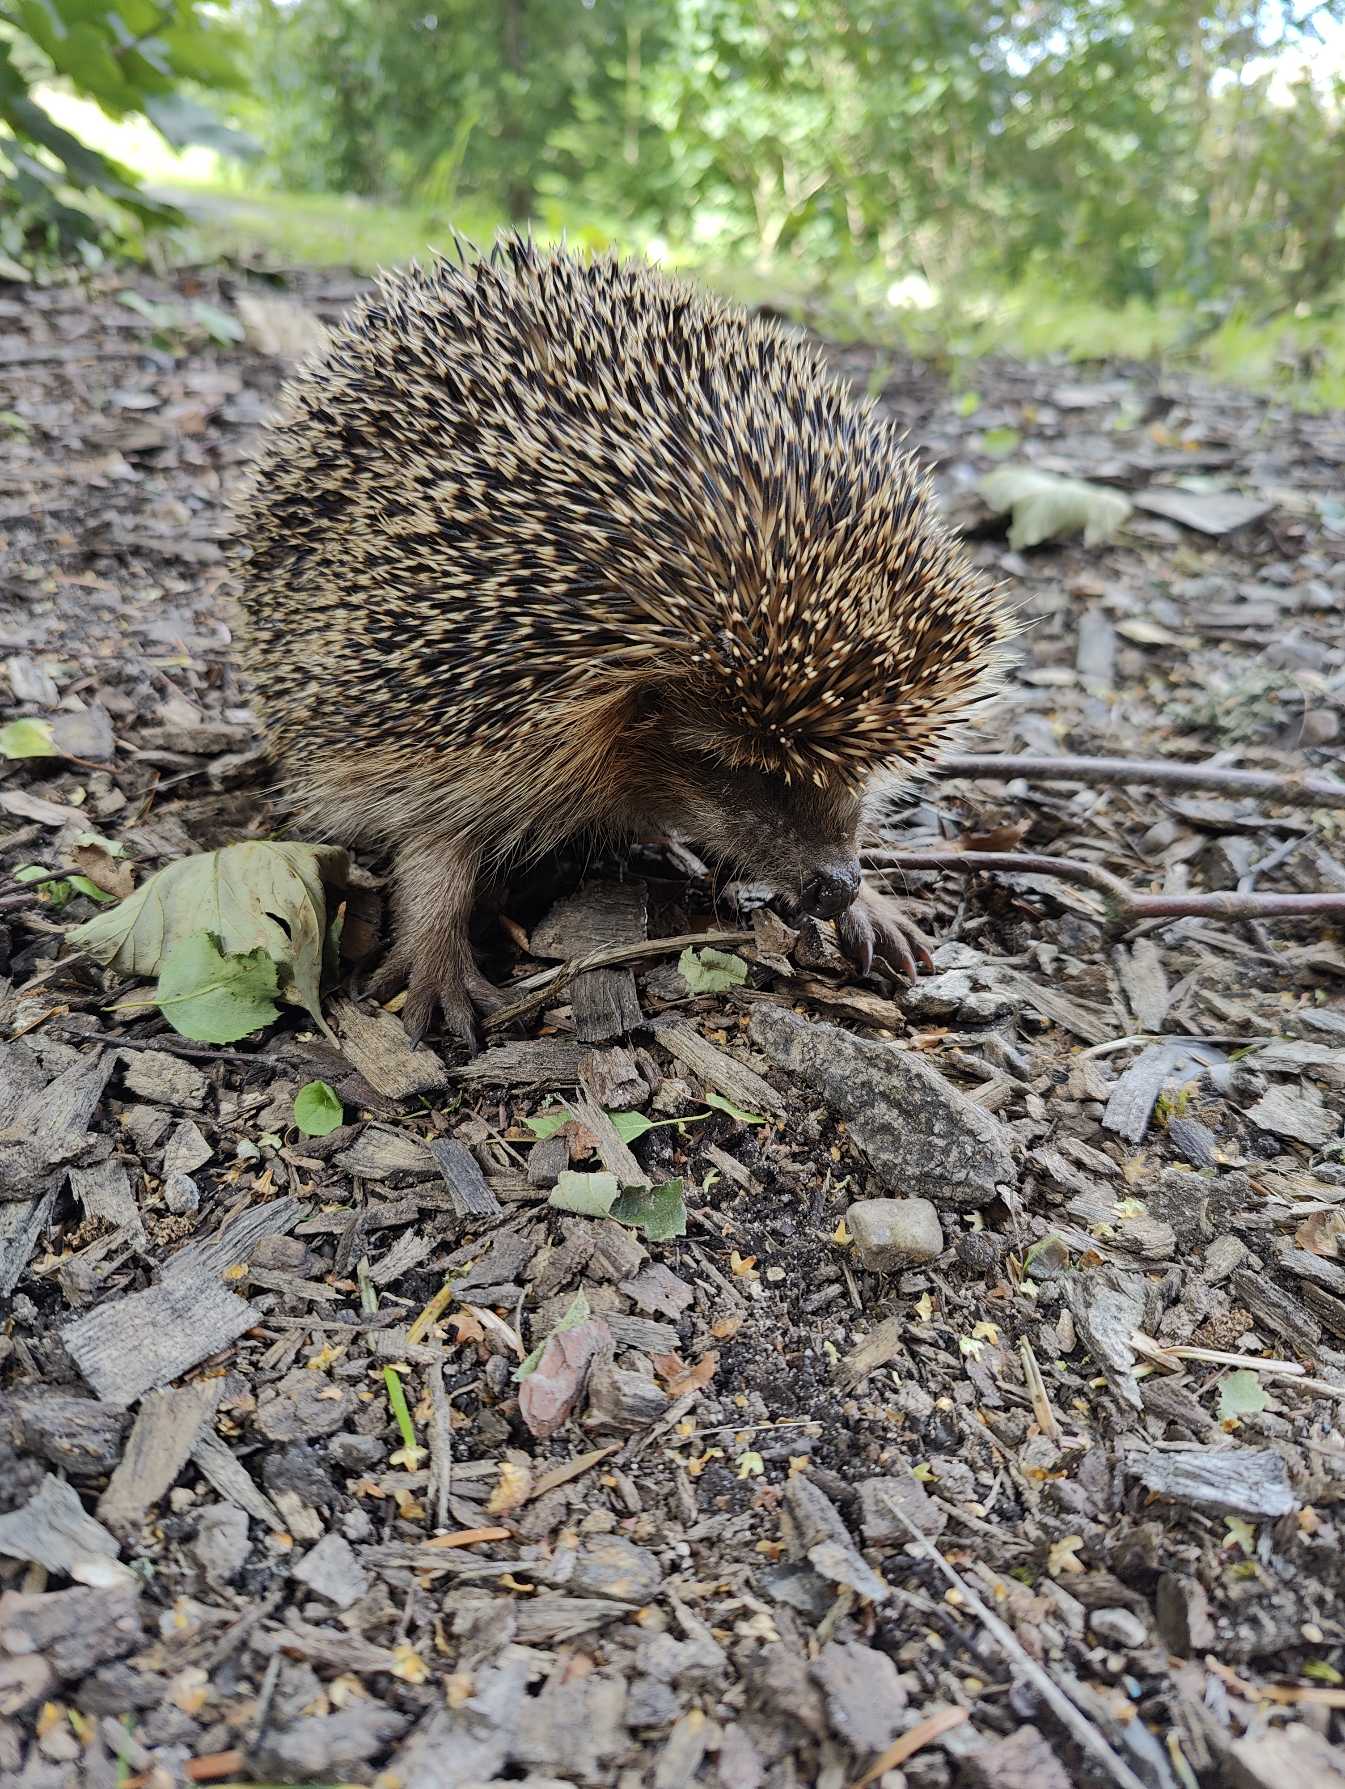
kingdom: Animalia
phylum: Chordata
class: Mammalia
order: Erinaceomorpha
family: Erinaceidae
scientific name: Erinaceidae
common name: Pindsvin
